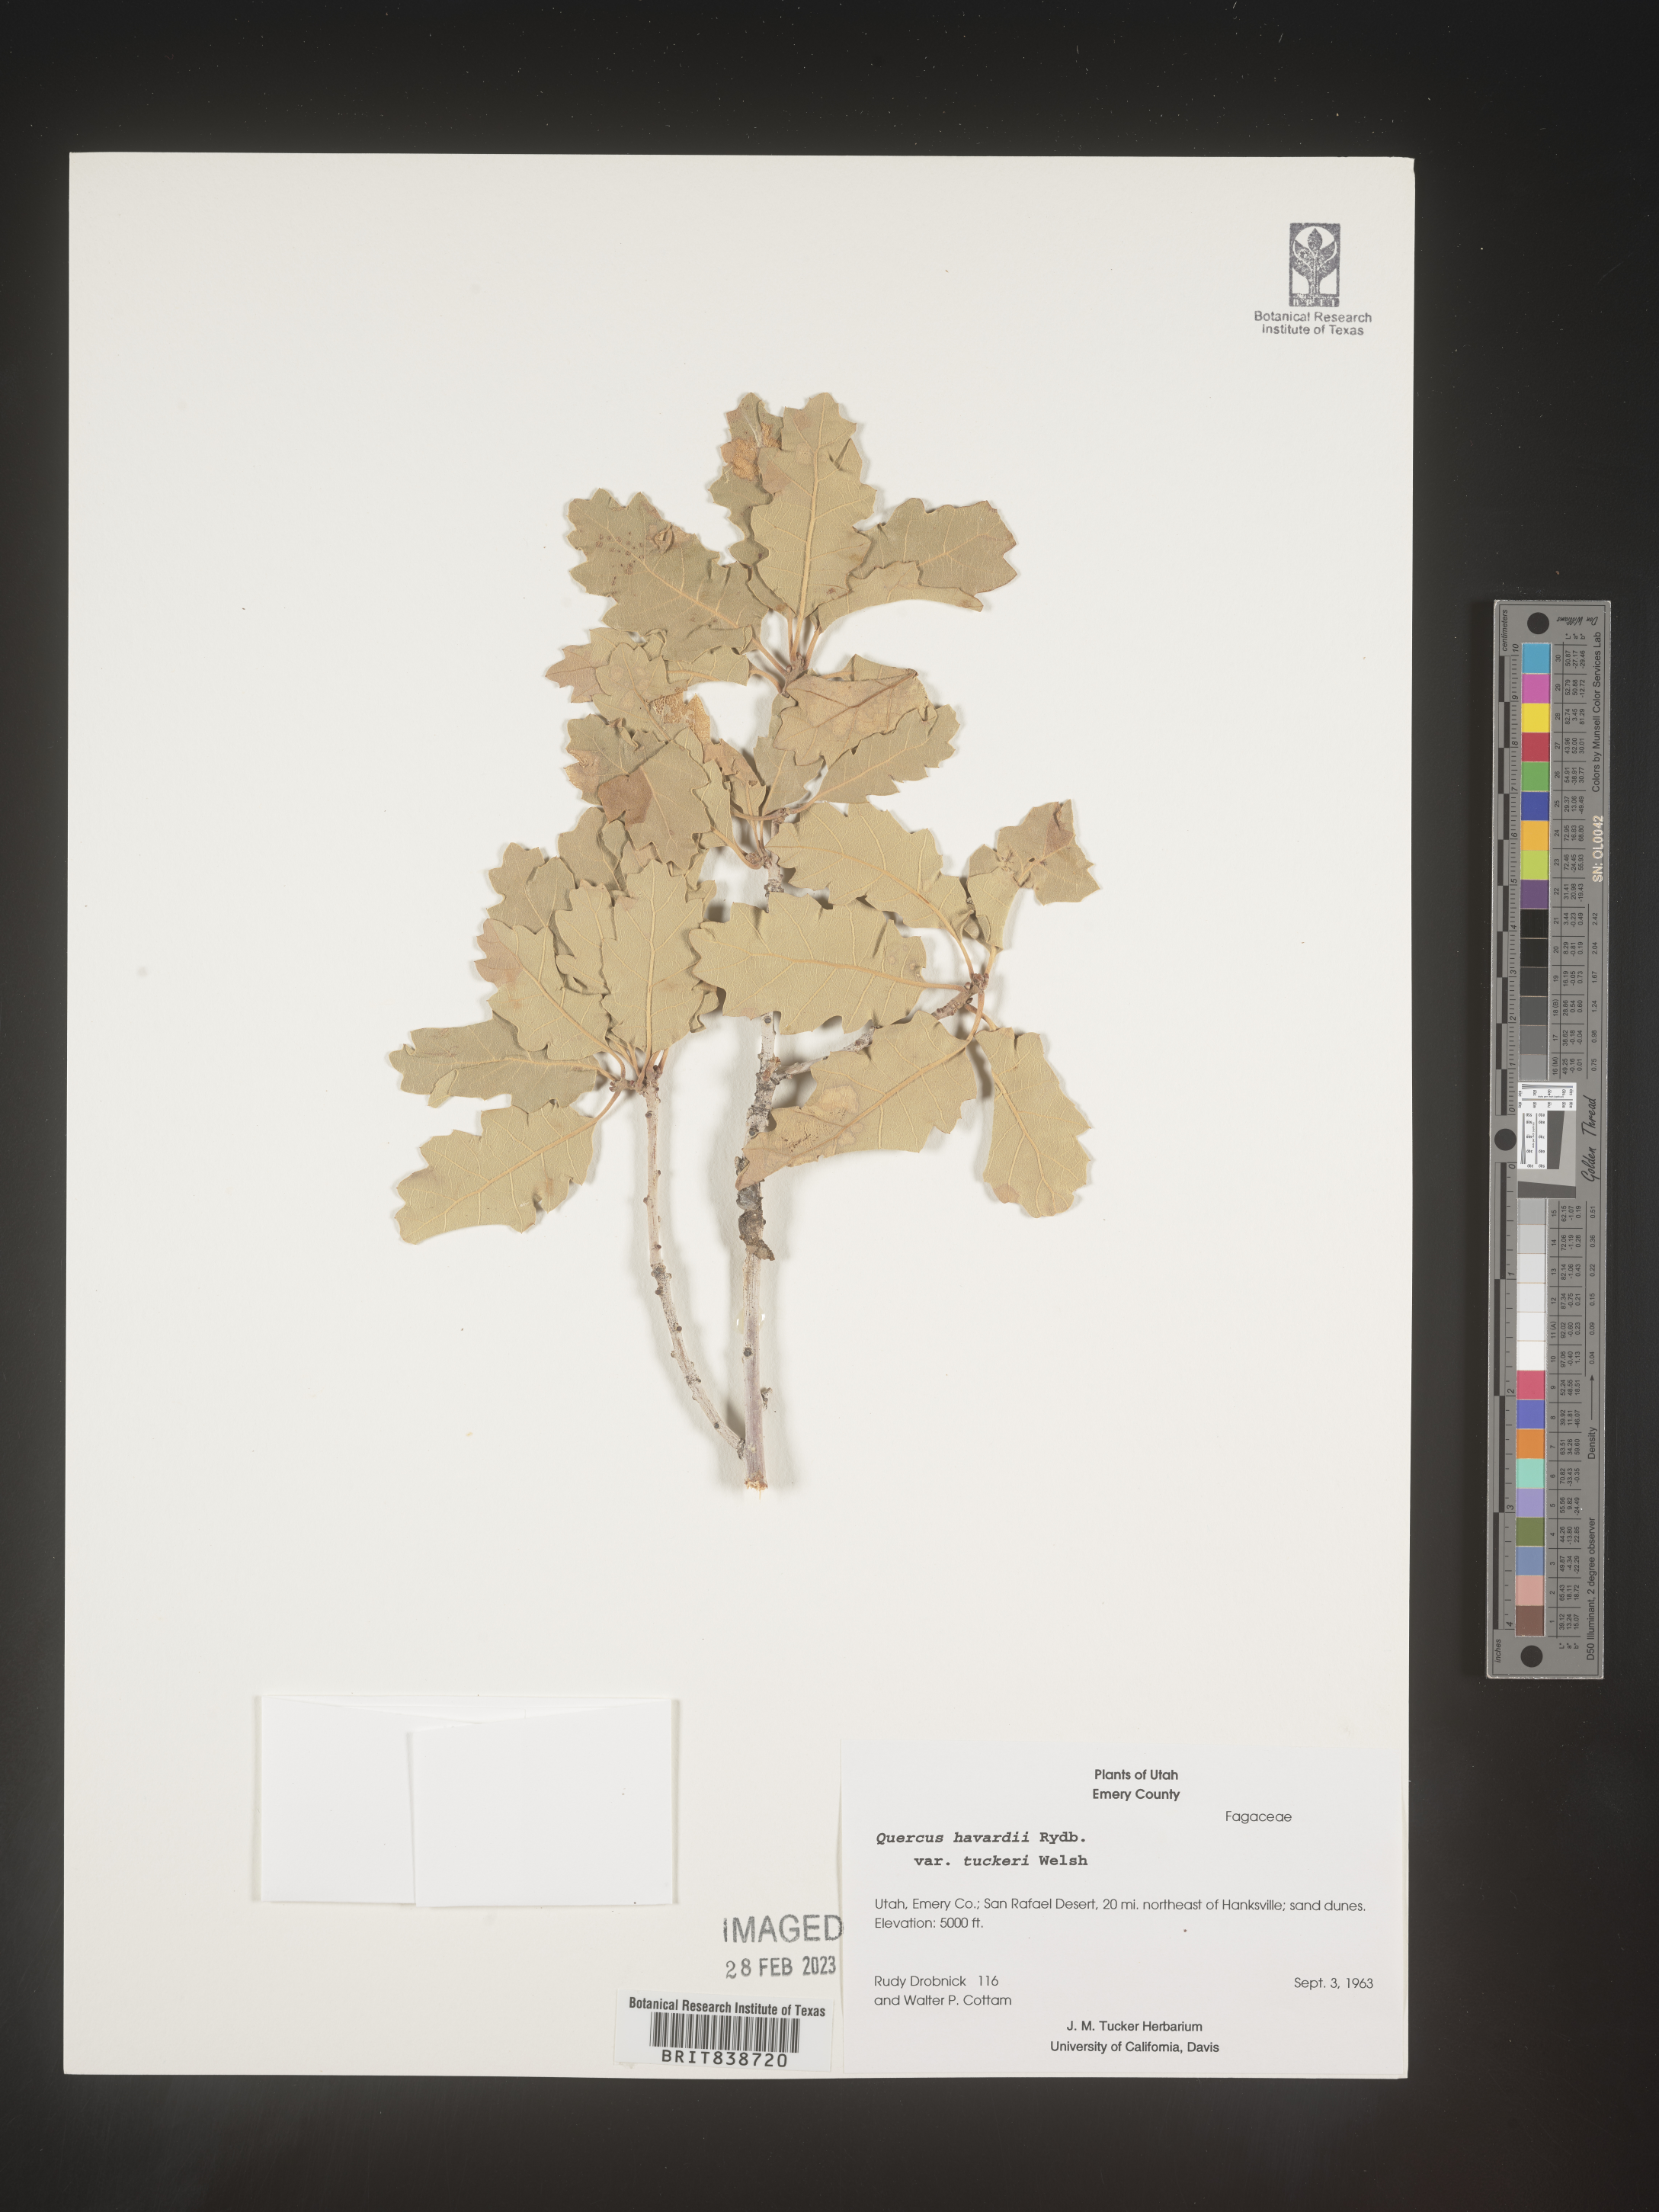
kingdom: Plantae
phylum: Tracheophyta
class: Magnoliopsida
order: Fagales
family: Fagaceae
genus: Quercus
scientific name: Quercus havardii
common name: Shinnery oak
